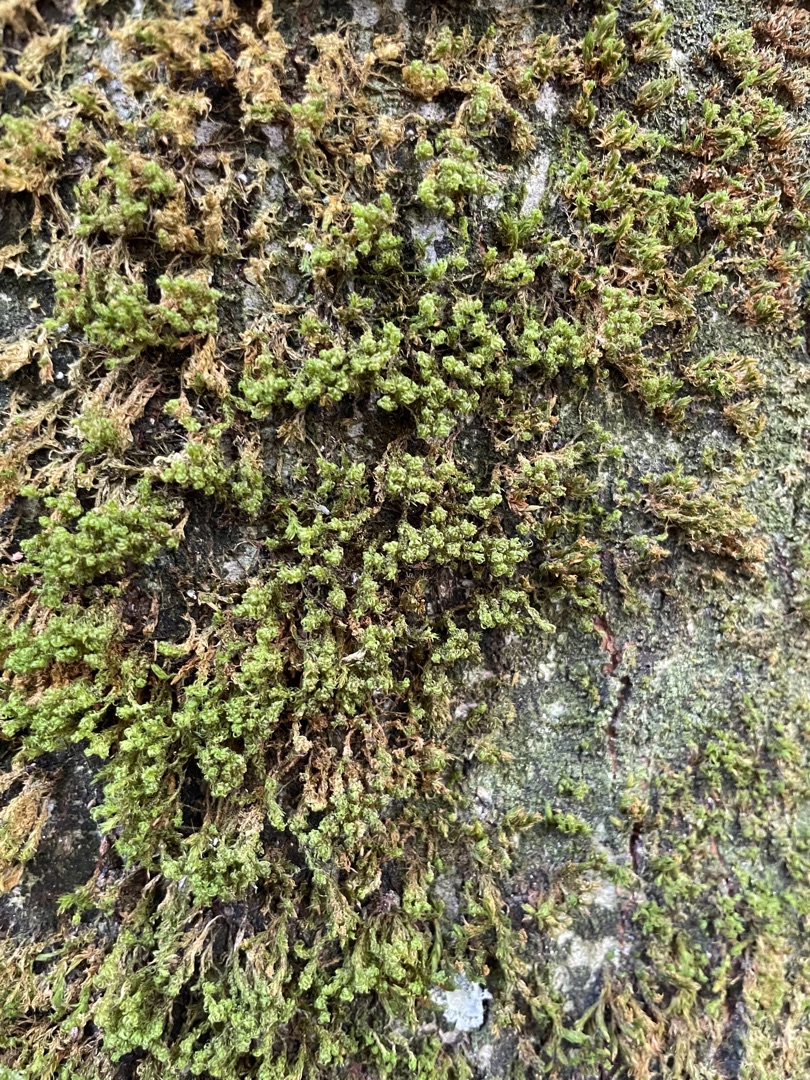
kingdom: Plantae
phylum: Bryophyta
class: Bryopsida
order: Orthotrichales
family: Orthotrichaceae
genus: Plenogemma
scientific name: Plenogemma phyllantha
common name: Stor låddenhætte
